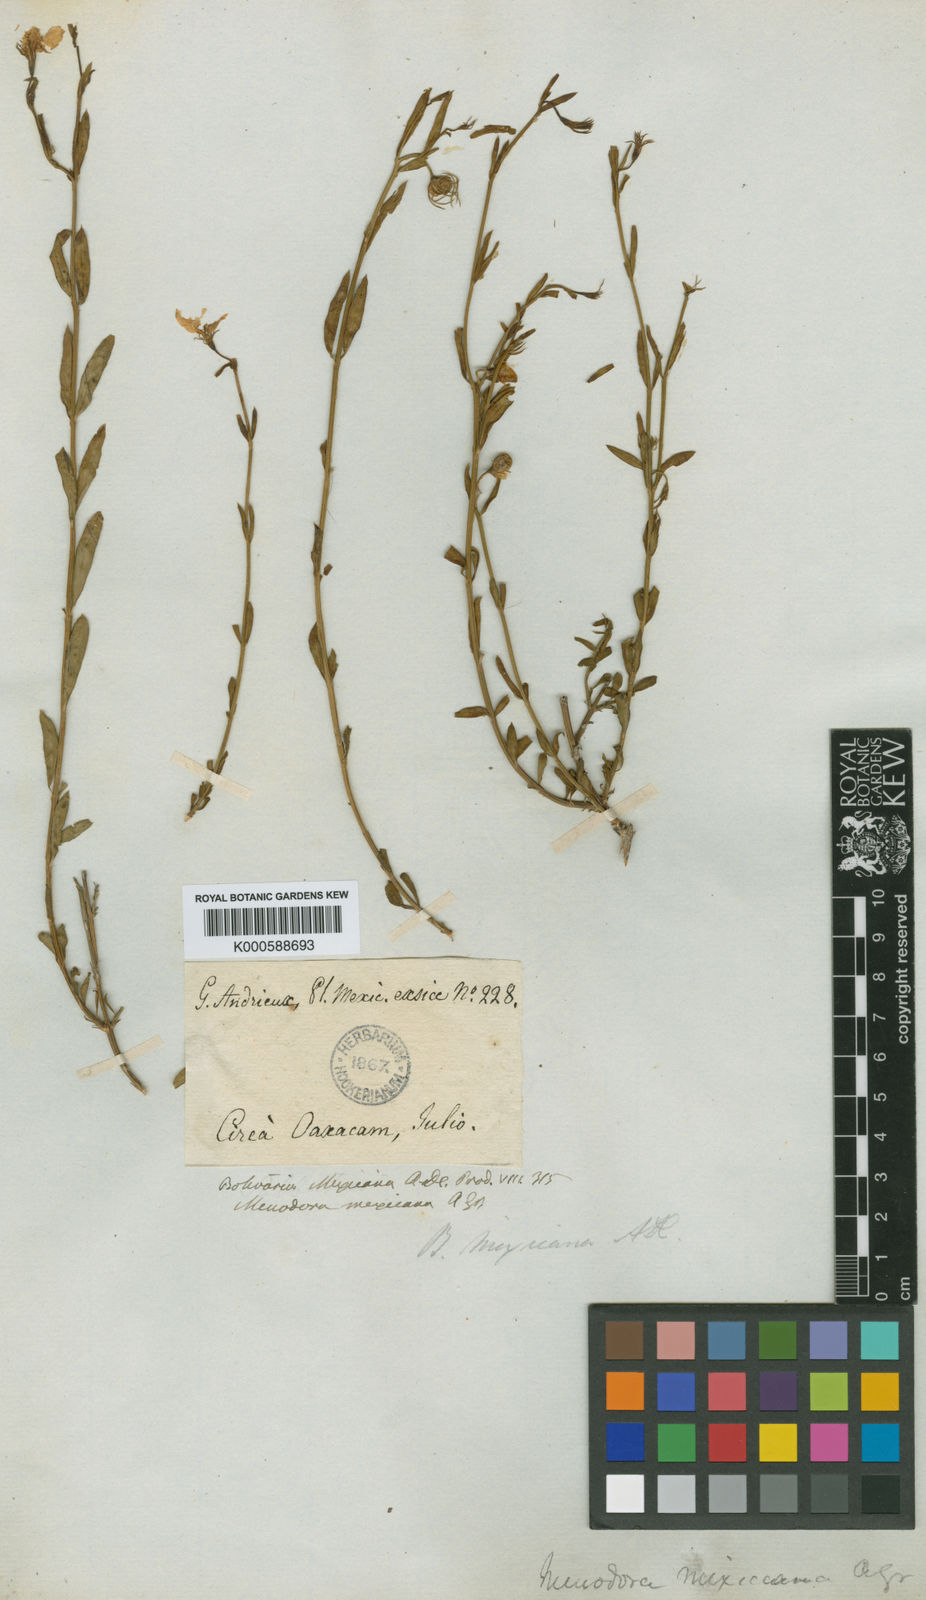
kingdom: Plantae
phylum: Tracheophyta
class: Magnoliopsida
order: Lamiales
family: Oleaceae
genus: Menodora
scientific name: Menodora mexicana
